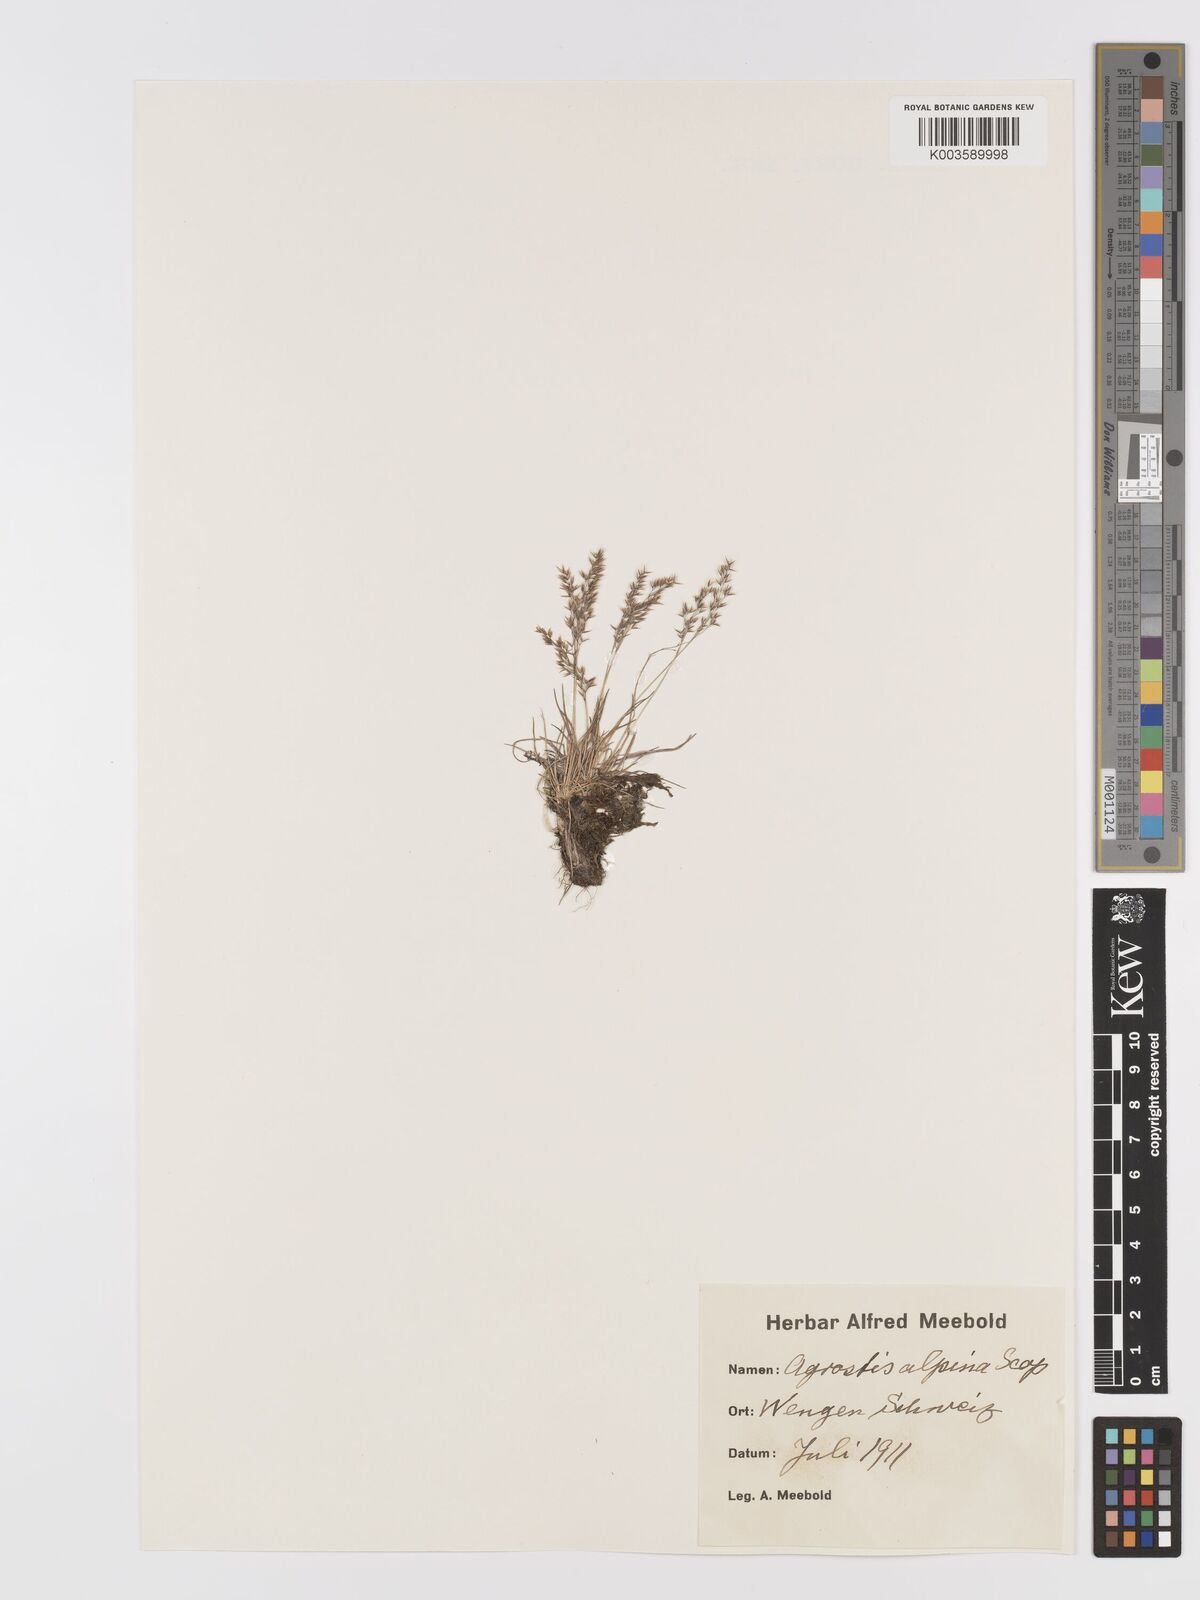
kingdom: Plantae
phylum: Tracheophyta
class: Liliopsida
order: Poales
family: Poaceae
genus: Alpagrostis
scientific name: Alpagrostis alpina
